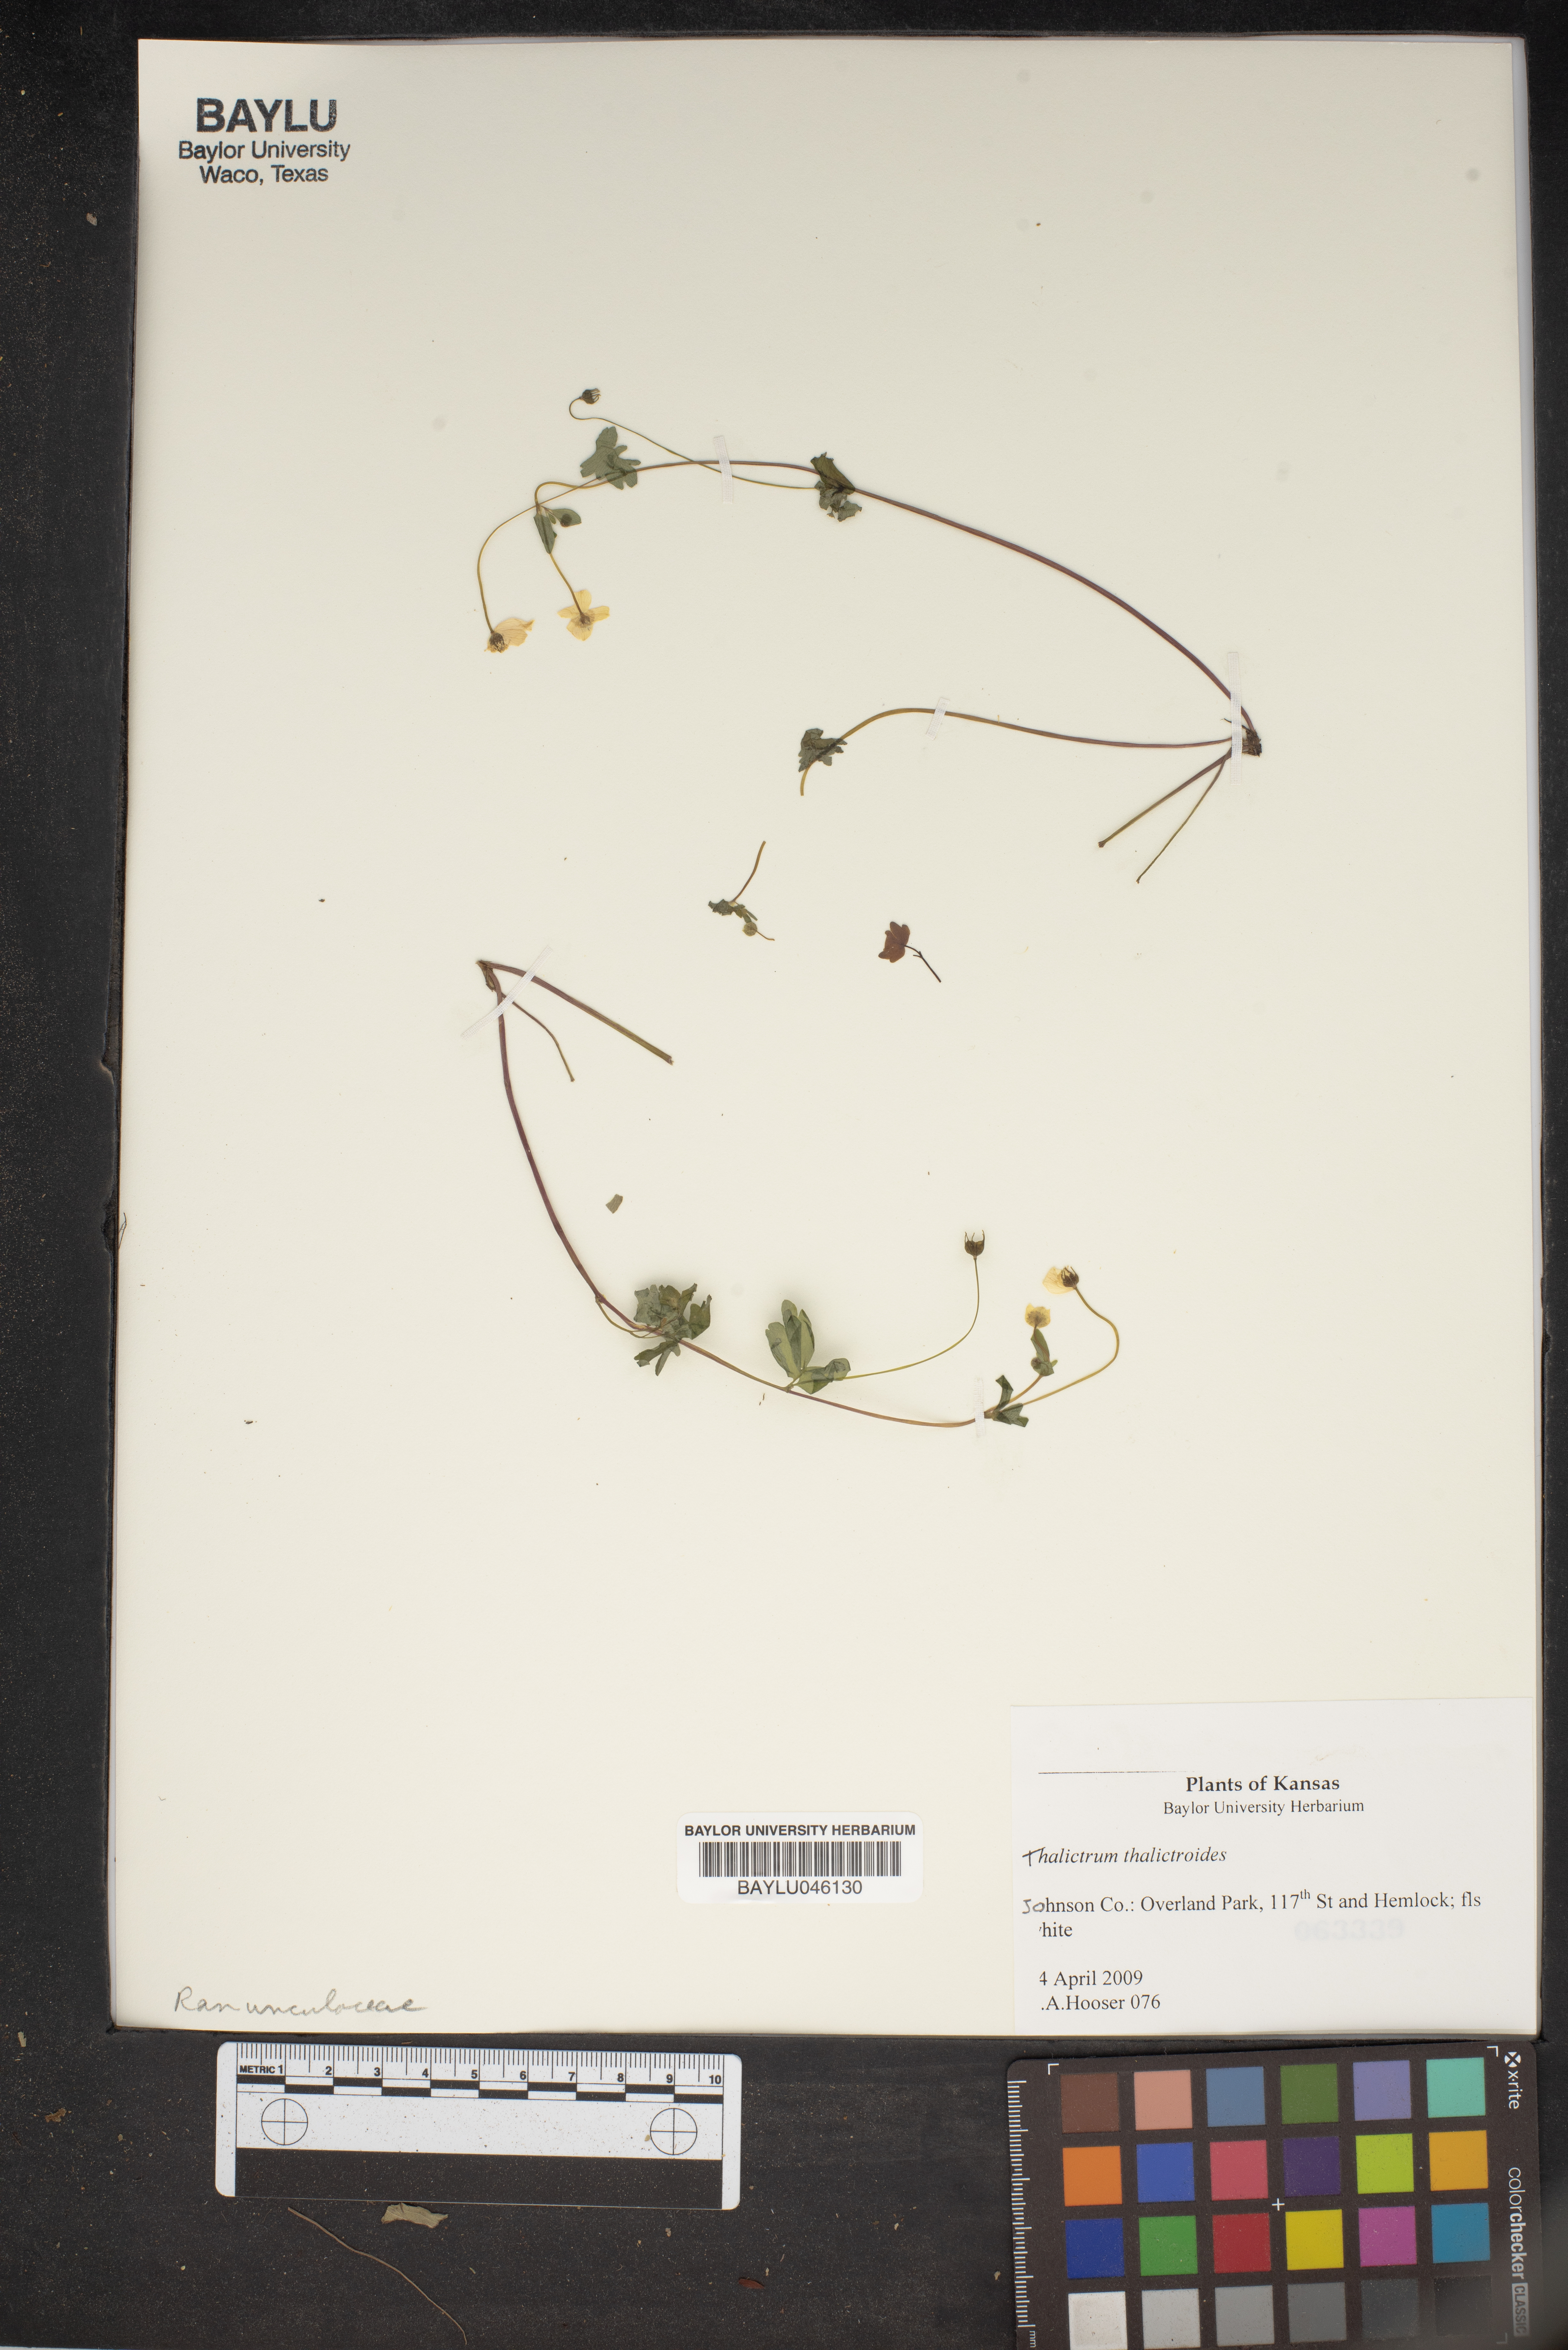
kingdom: Plantae
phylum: Tracheophyta
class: Magnoliopsida
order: Ranunculales
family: Ranunculaceae
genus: Thalictrum
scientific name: Thalictrum thalictroides
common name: Rue-anemone
